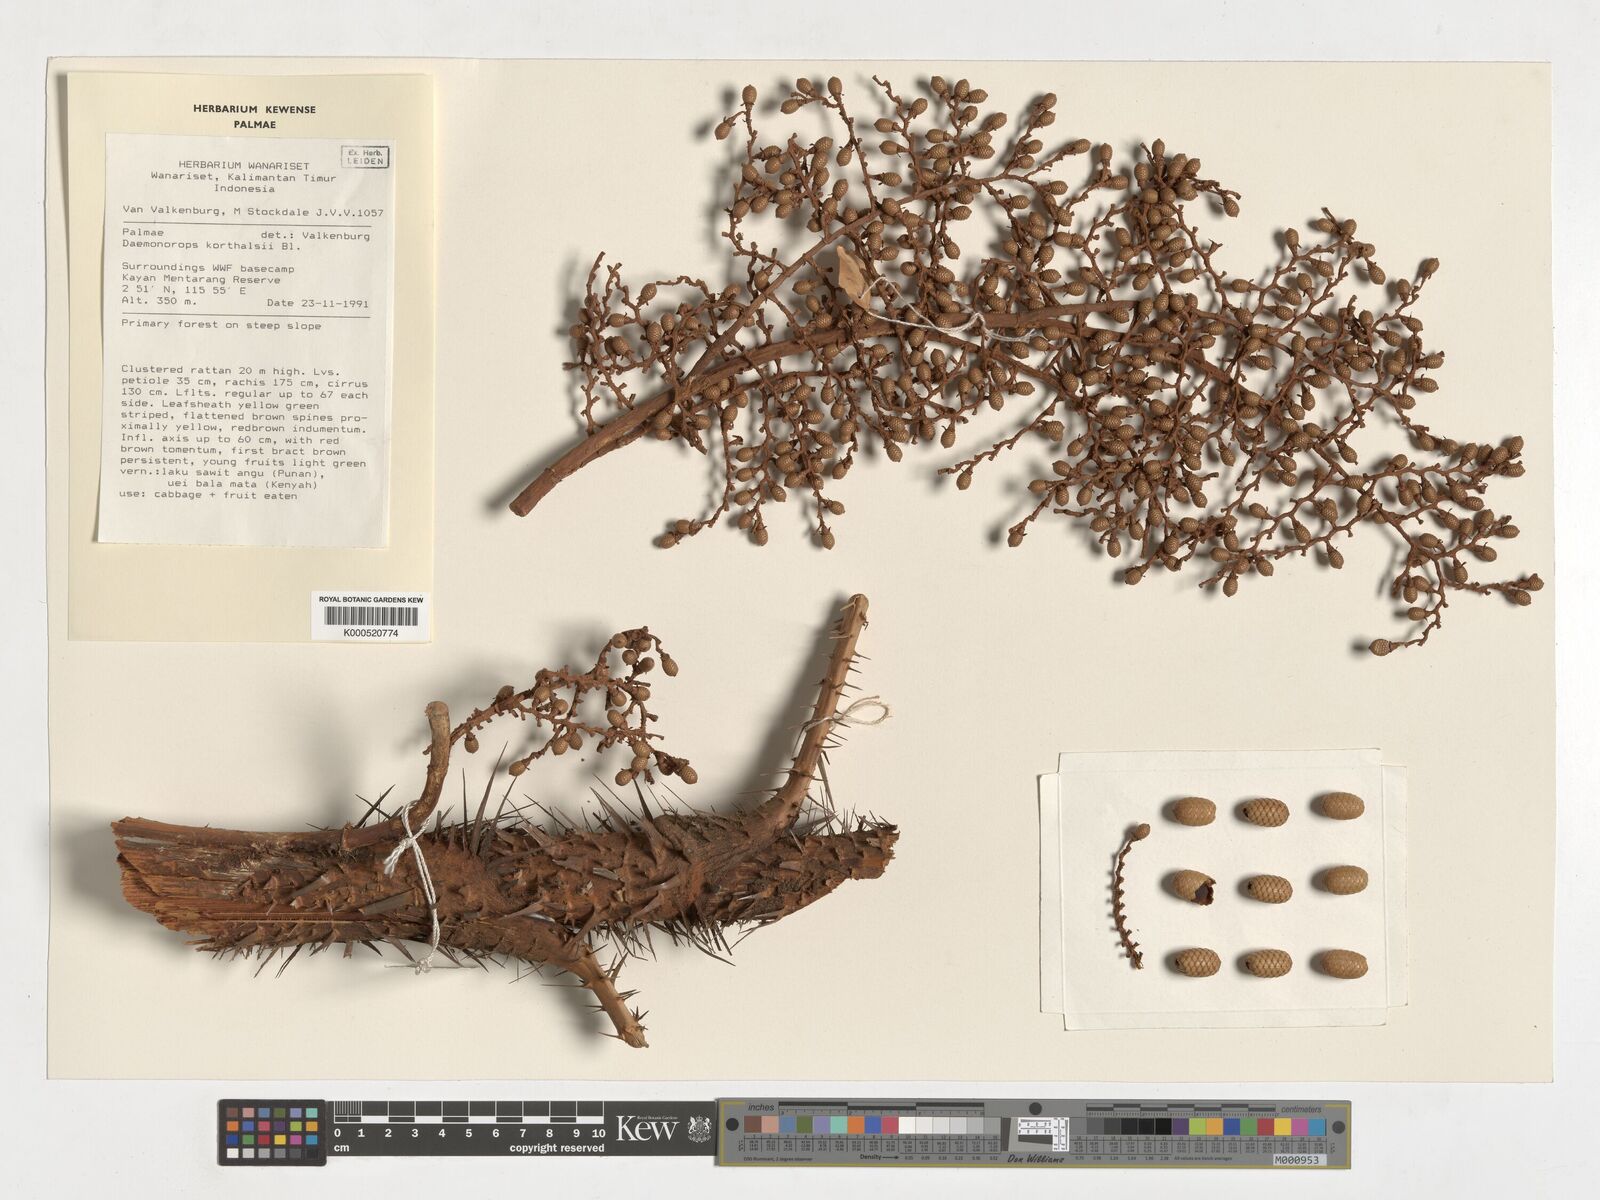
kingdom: Plantae
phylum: Tracheophyta
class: Liliopsida
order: Arecales
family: Arecaceae
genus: Calamus
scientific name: Calamus hirsutus
